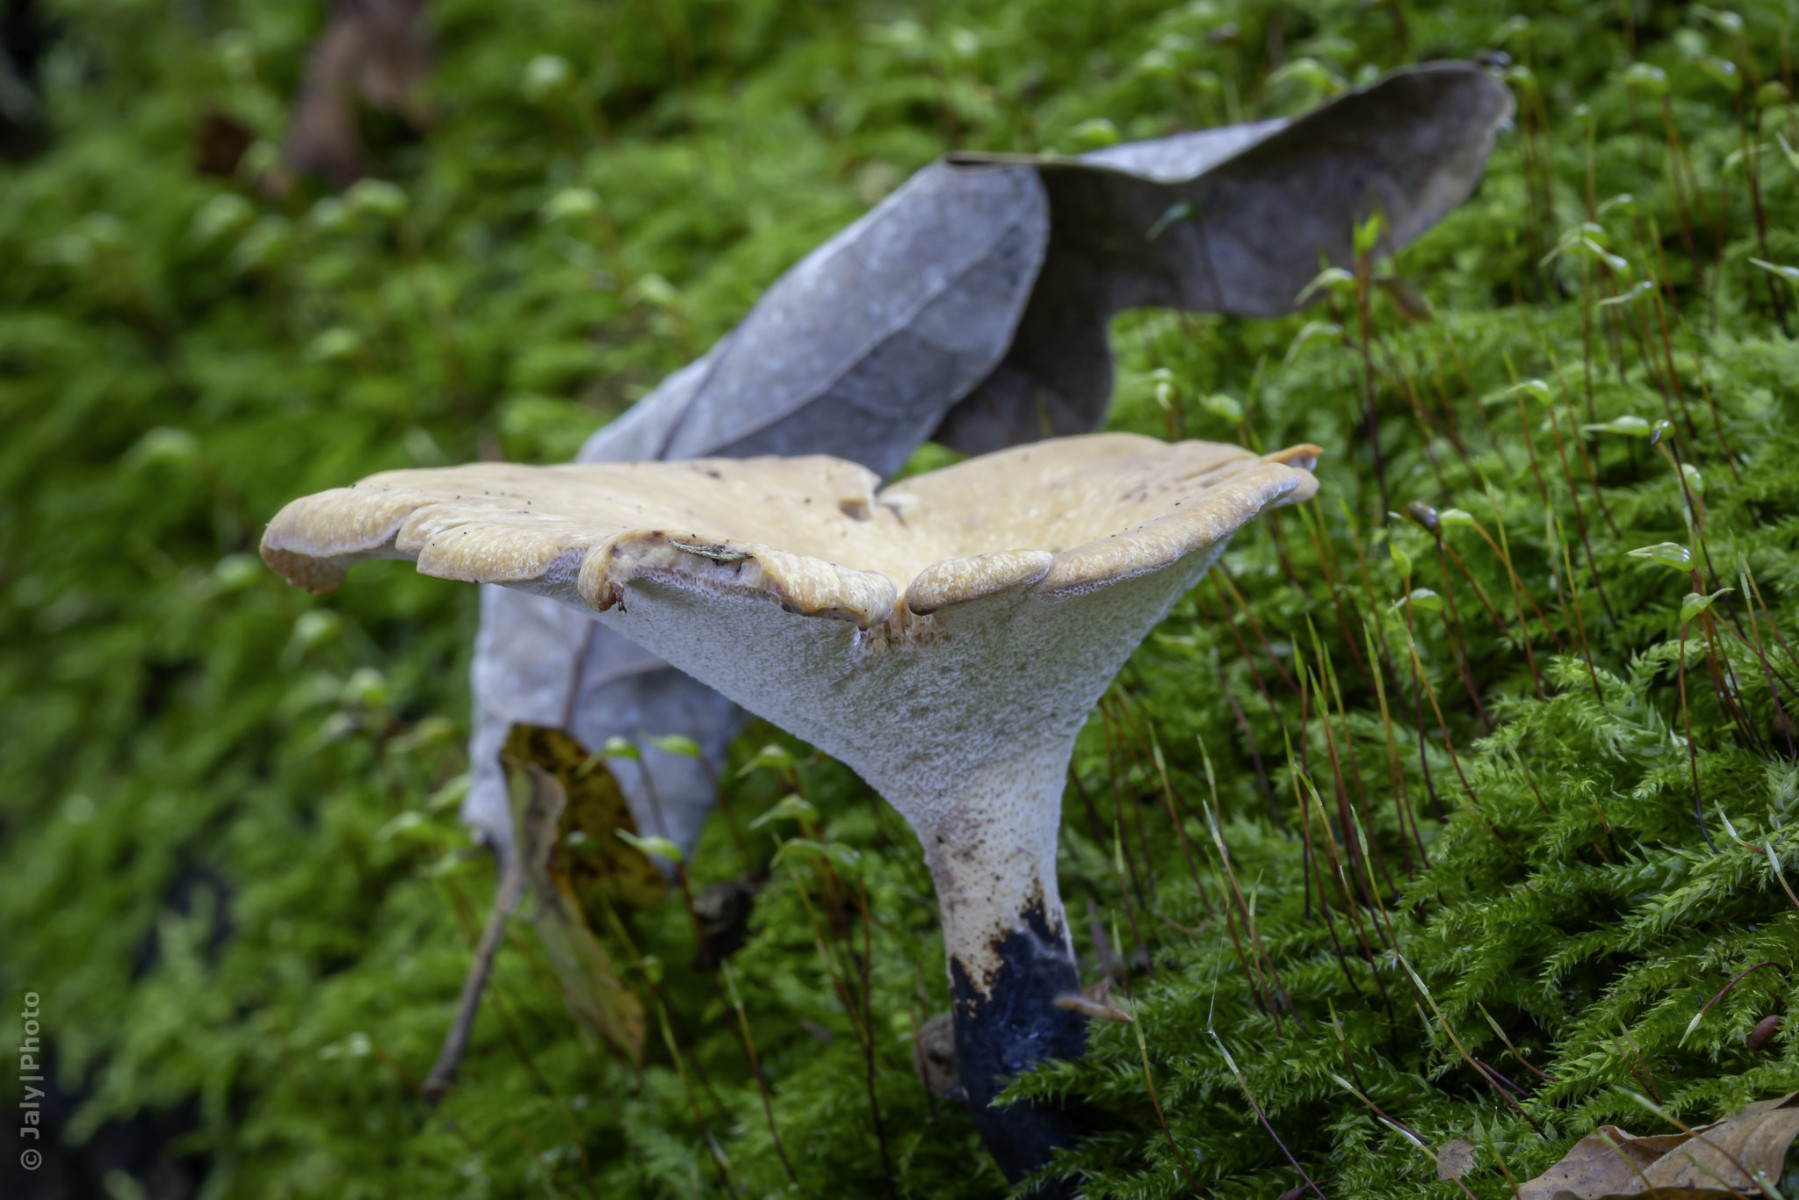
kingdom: Fungi
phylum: Basidiomycota
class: Agaricomycetes
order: Polyporales
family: Polyporaceae
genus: Cerioporus
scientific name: Cerioporus varius
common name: foranderlig stilkporesvamp
